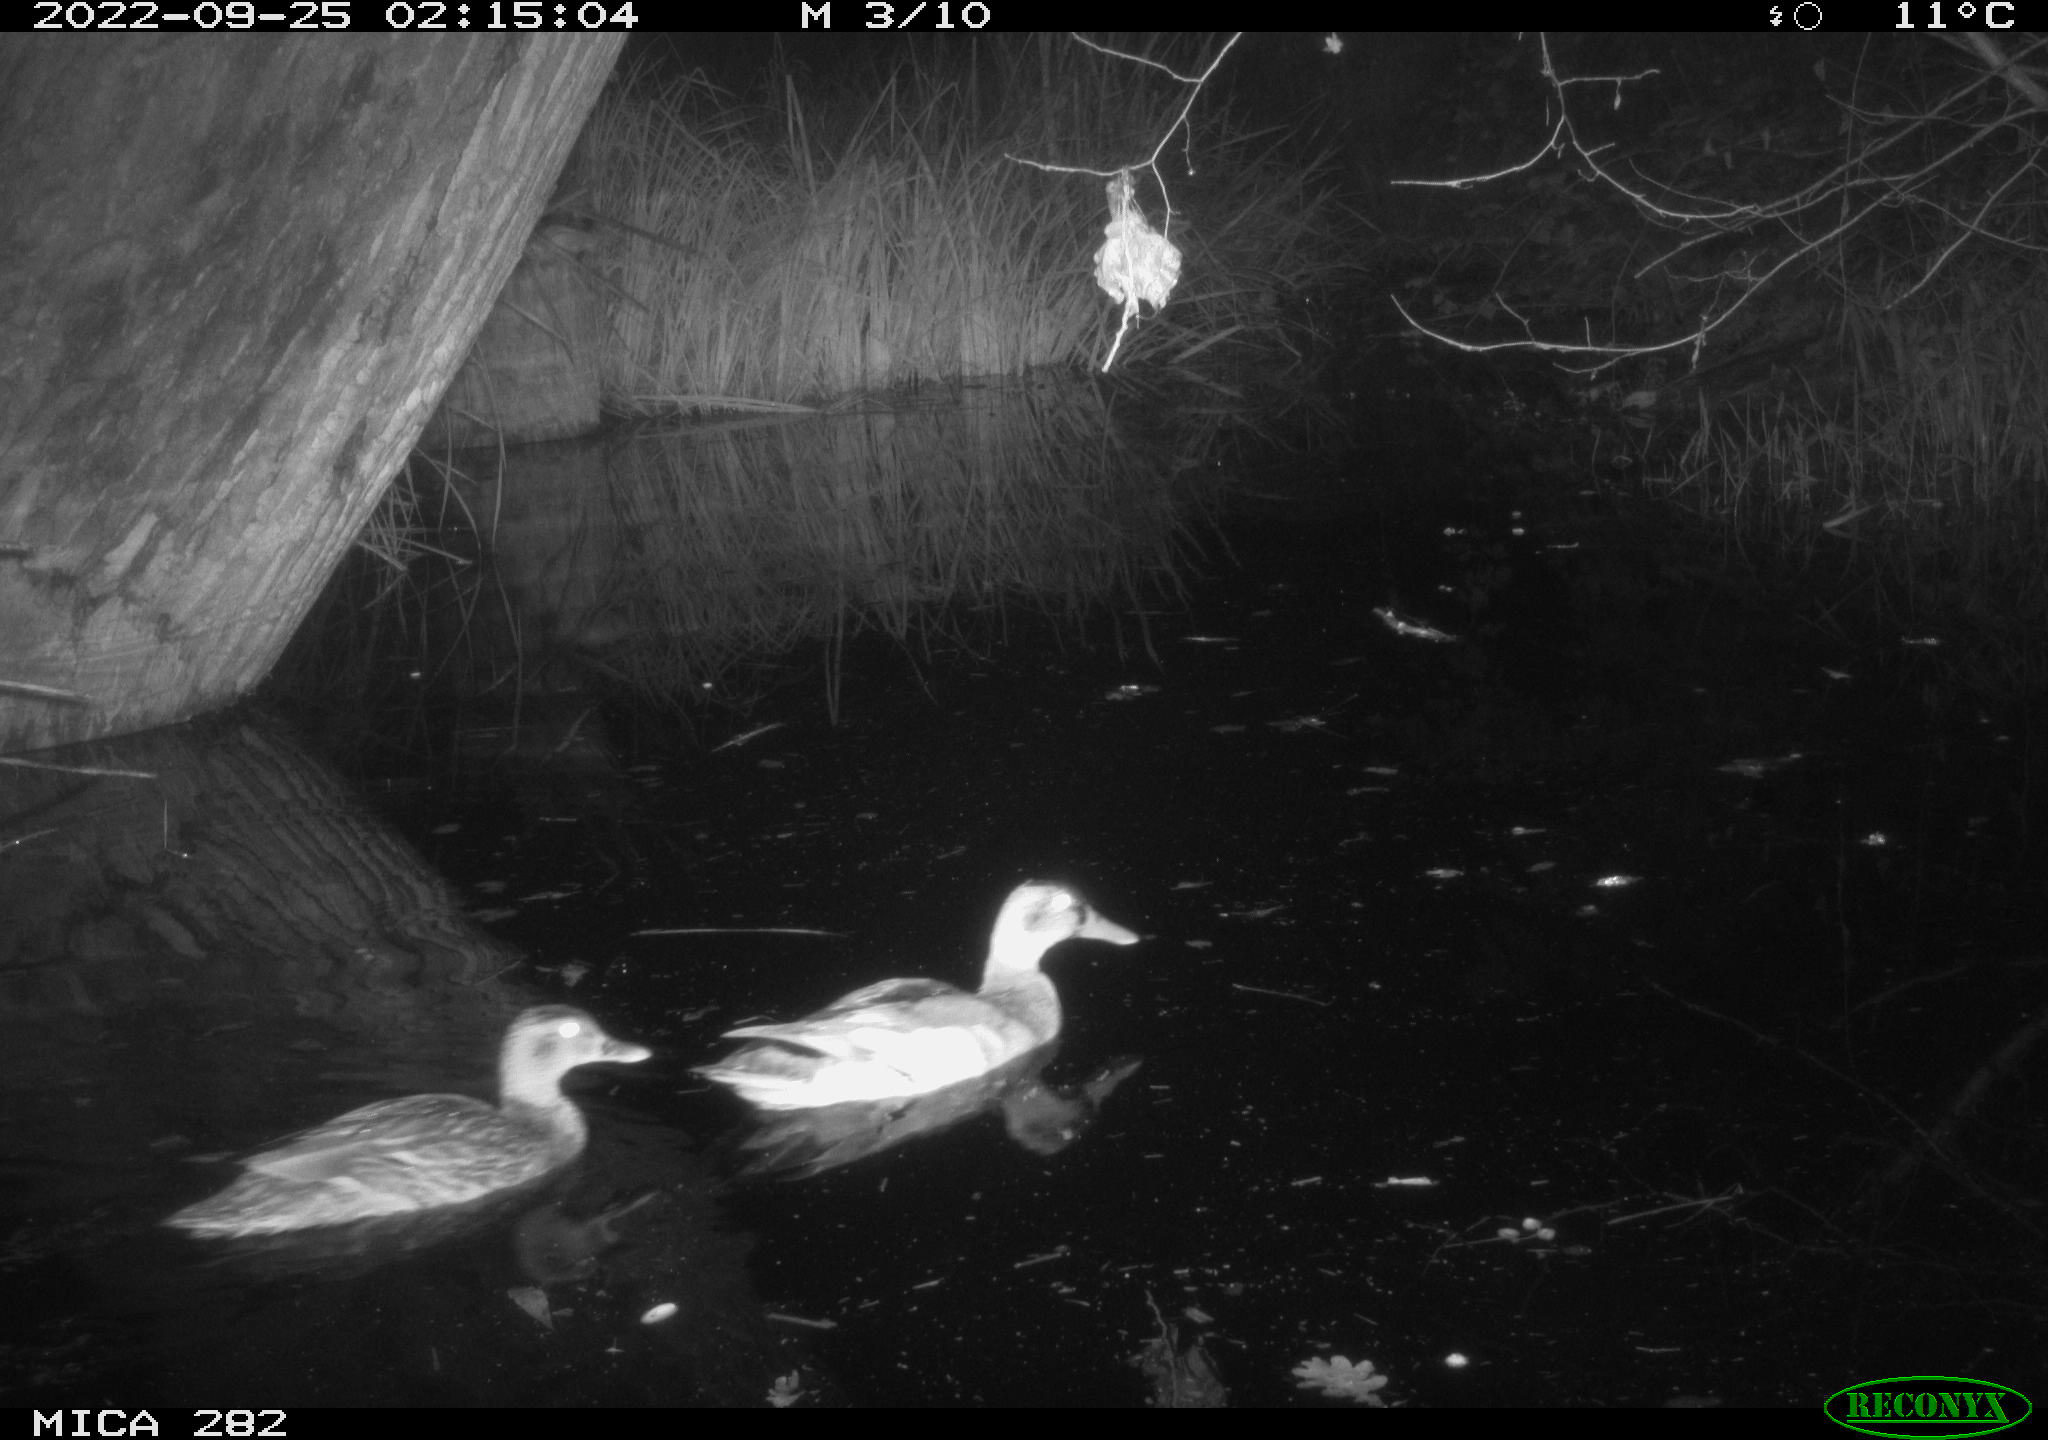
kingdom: Animalia
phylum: Chordata
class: Aves
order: Anseriformes
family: Anatidae
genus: Anas
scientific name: Anas
